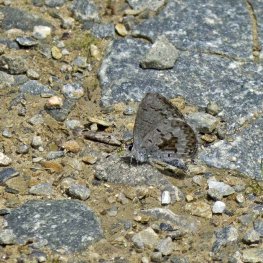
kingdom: Animalia
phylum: Arthropoda
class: Insecta
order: Lepidoptera
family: Lycaenidae
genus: Celastrina
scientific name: Celastrina lucia
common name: Northern Spring Azure
